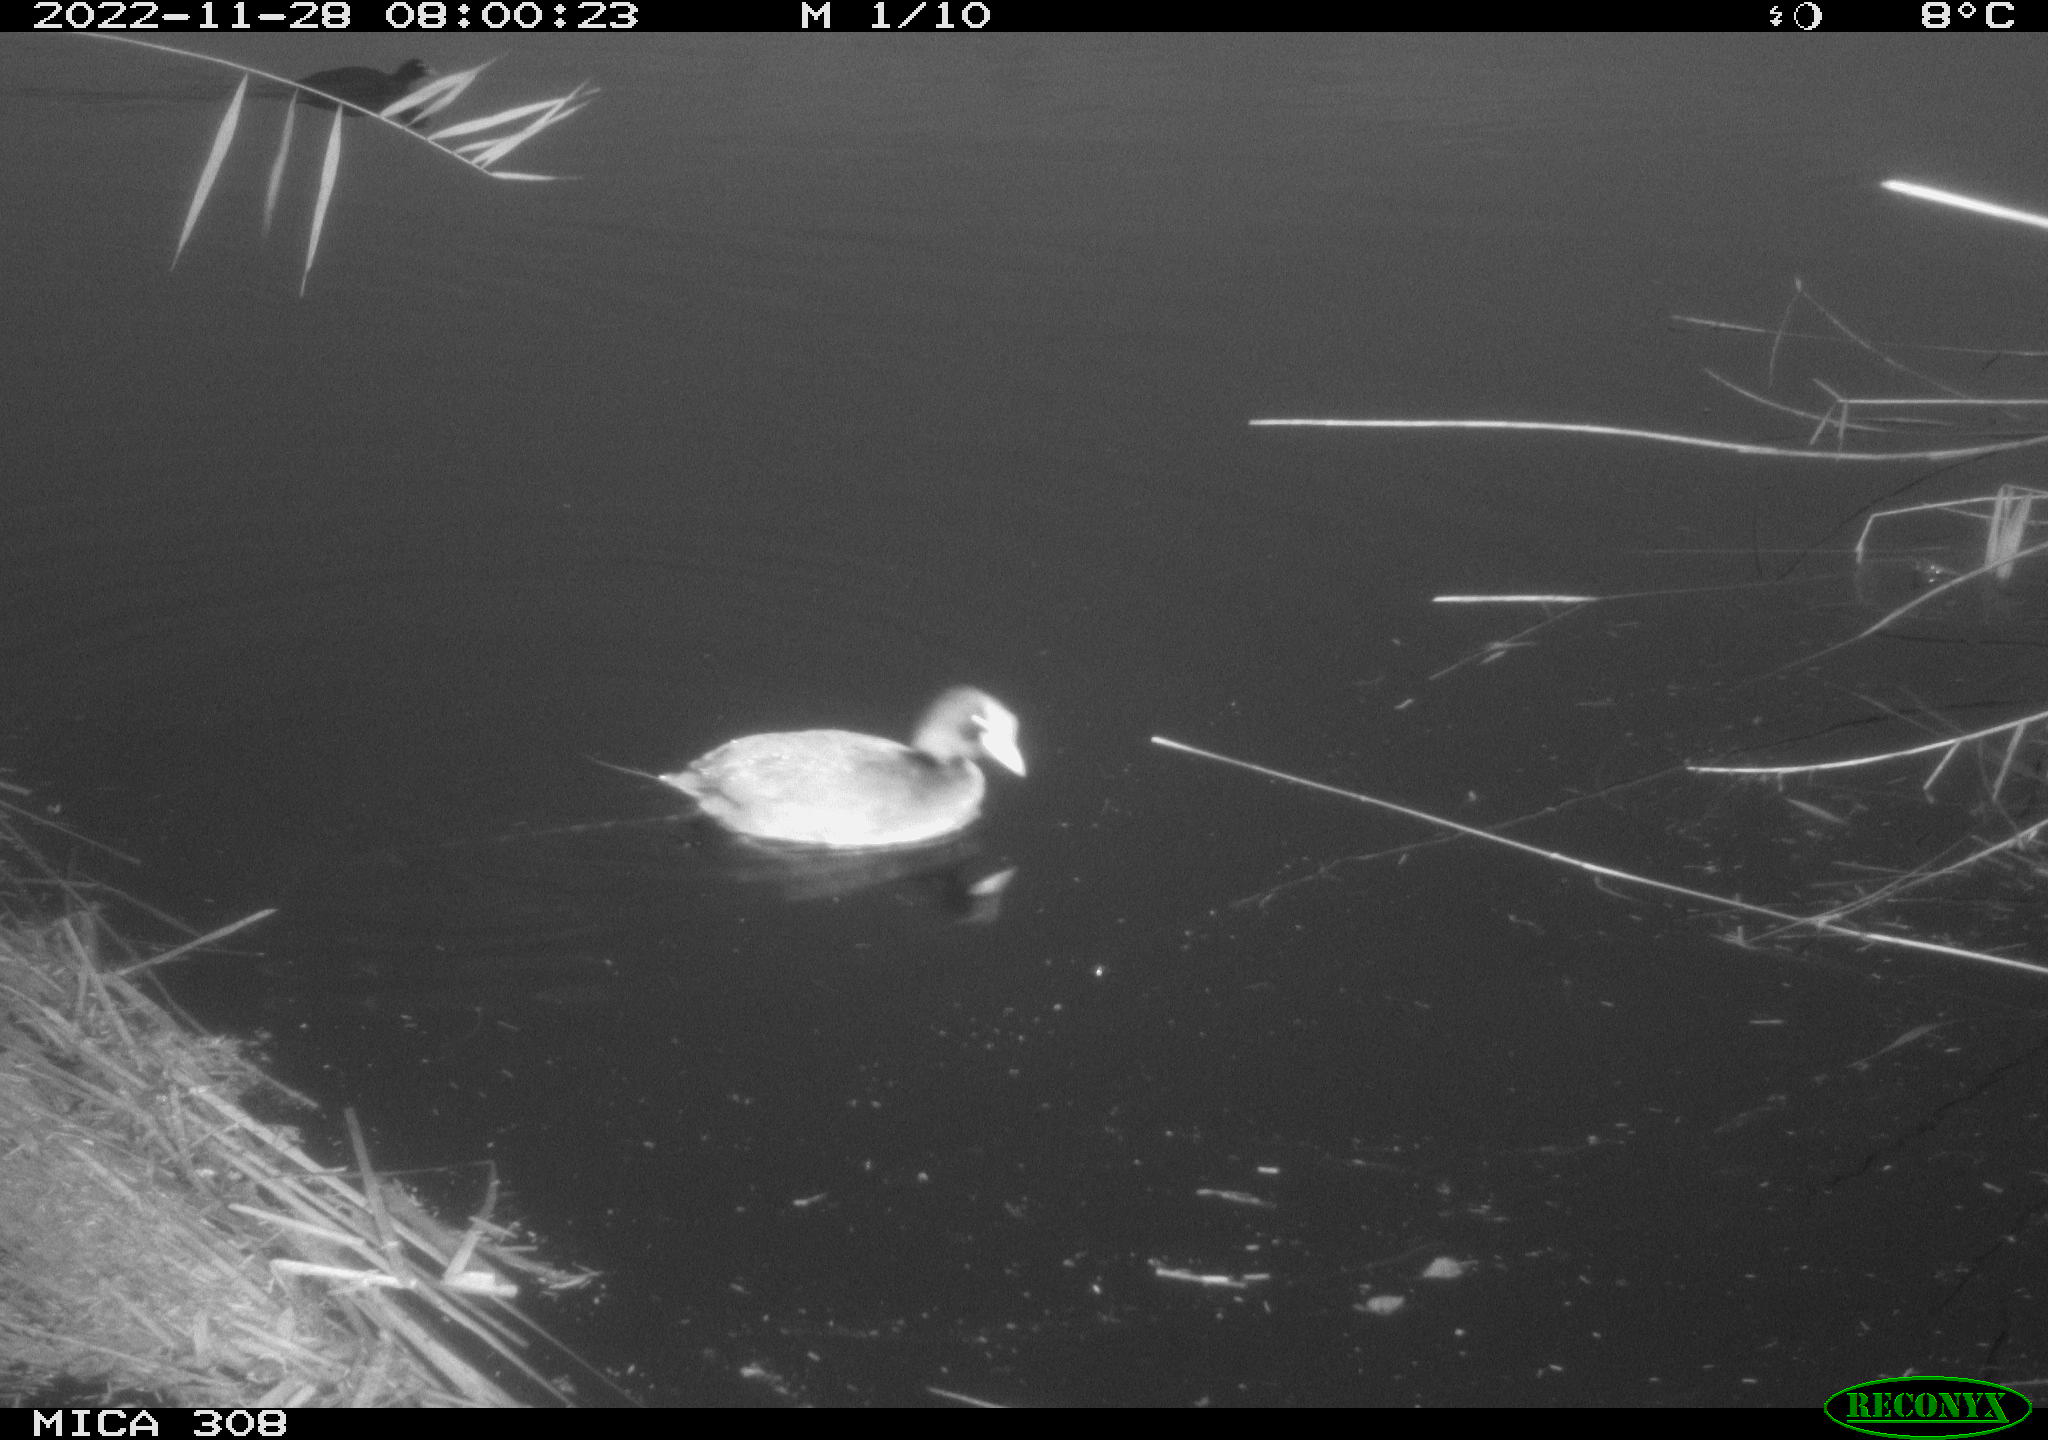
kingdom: Animalia
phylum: Chordata
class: Aves
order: Anseriformes
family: Anatidae
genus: Anas
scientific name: Anas
